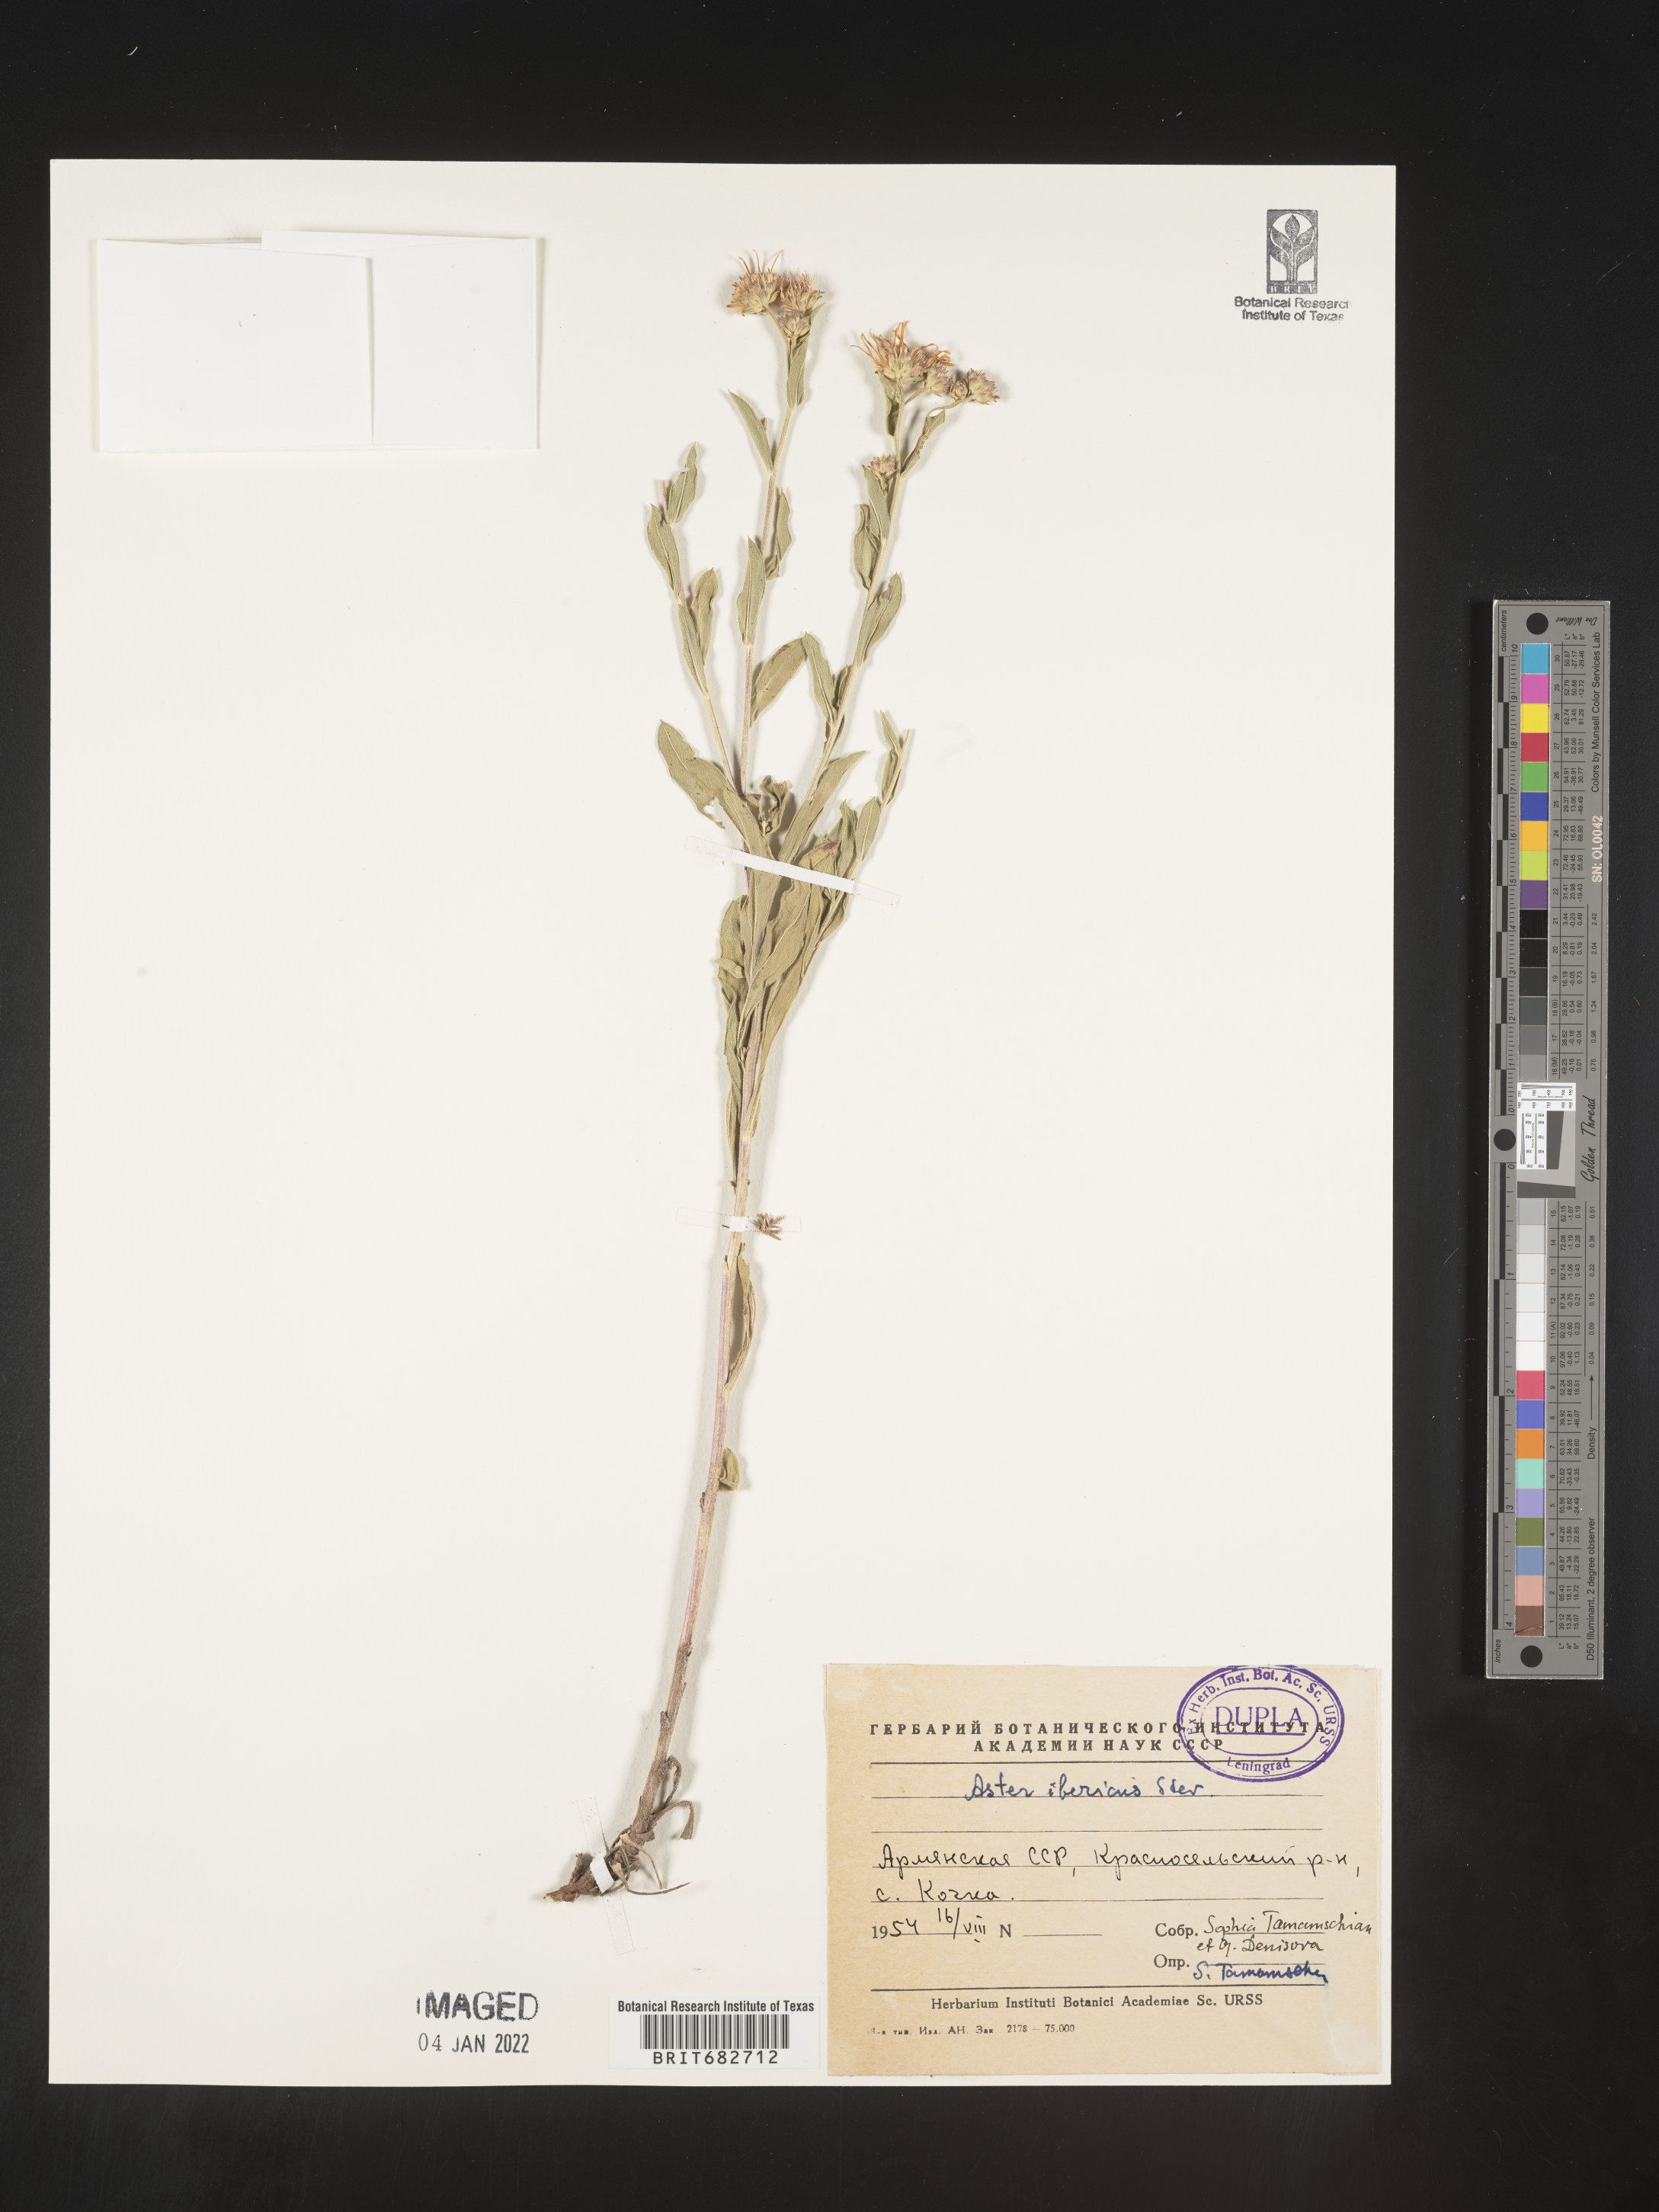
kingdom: Plantae
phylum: Tracheophyta
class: Magnoliopsida
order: Asterales
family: Asteraceae
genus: Aster
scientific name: Aster
